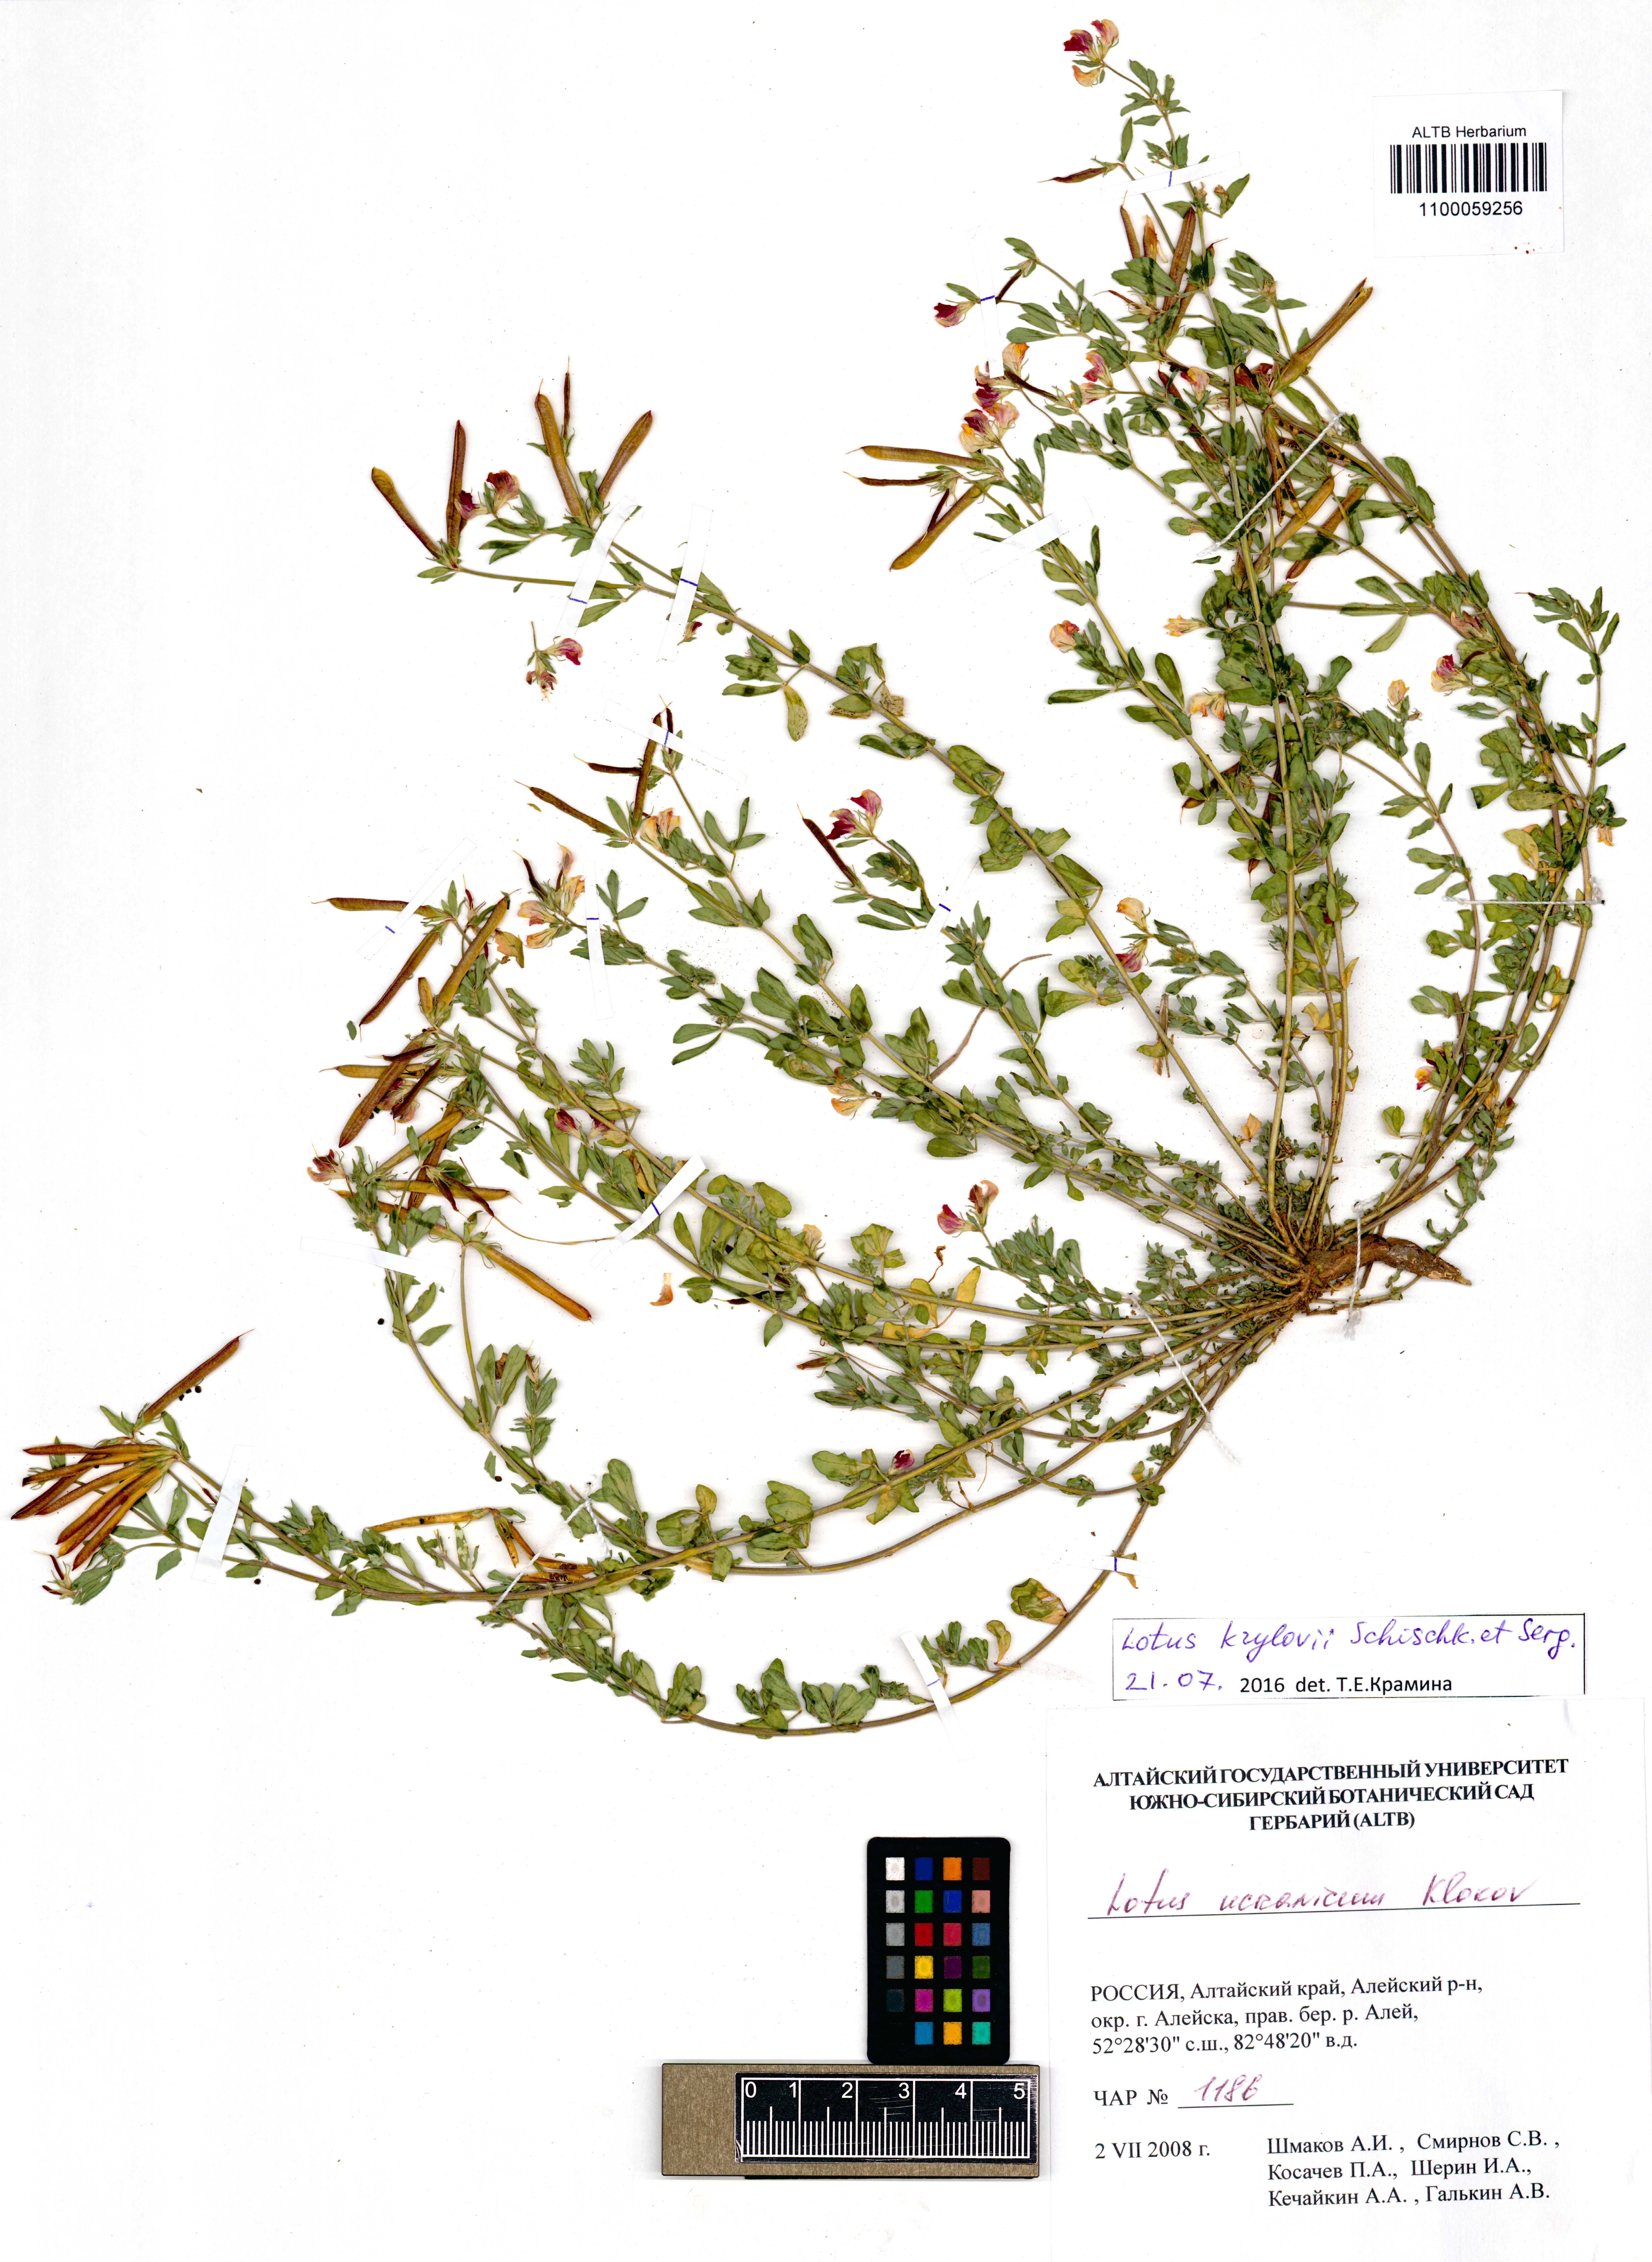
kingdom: Plantae
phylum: Tracheophyta
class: Magnoliopsida
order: Fabales
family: Fabaceae
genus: Lotus
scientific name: Lotus krylovii
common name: Krylov's bird's-foot trefoil
